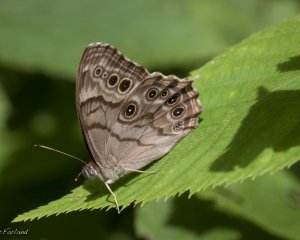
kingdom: Animalia
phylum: Arthropoda
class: Insecta
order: Lepidoptera
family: Nymphalidae
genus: Lethe
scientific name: Lethe anthedon
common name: Northern Pearly-Eye
